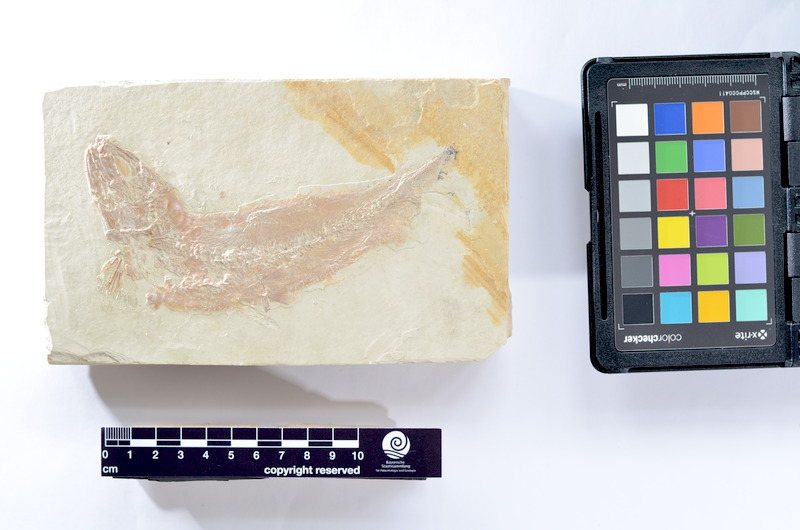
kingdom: Animalia
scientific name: Animalia
